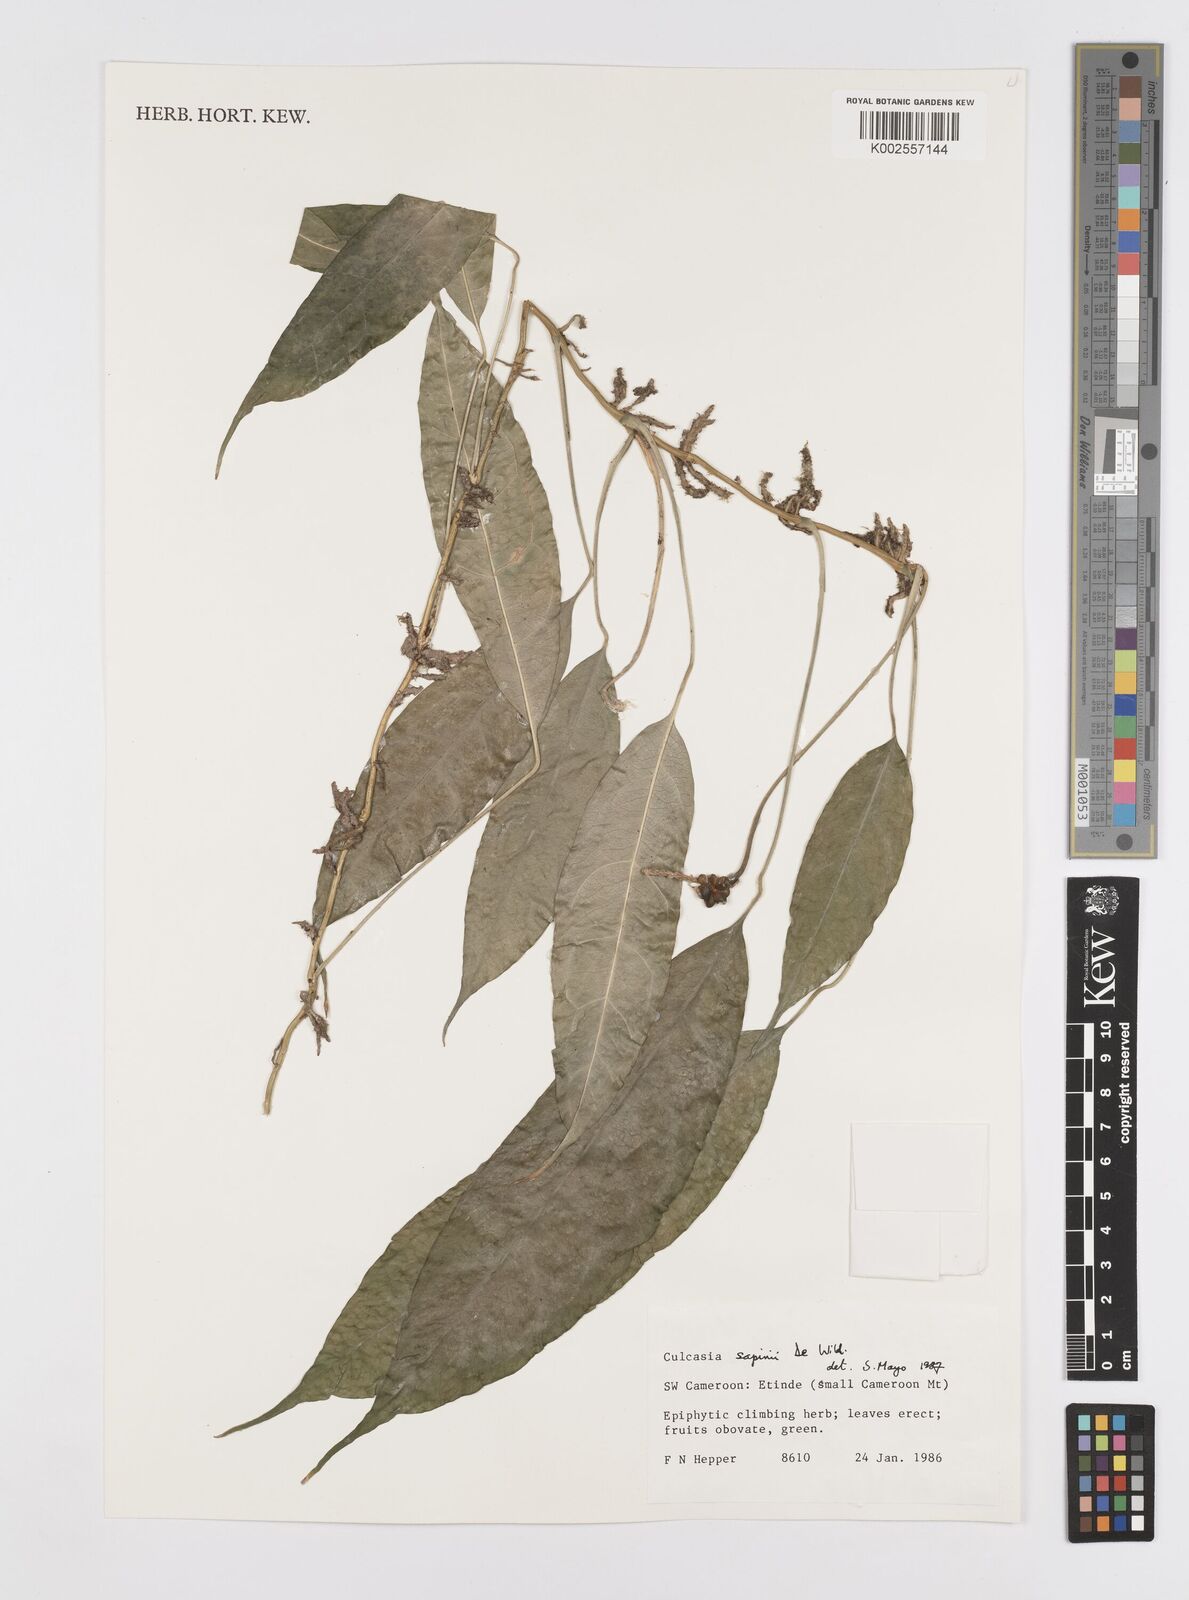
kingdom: Plantae
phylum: Tracheophyta
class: Liliopsida
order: Alismatales
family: Araceae
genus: Culcasia
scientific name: Culcasia seretii
